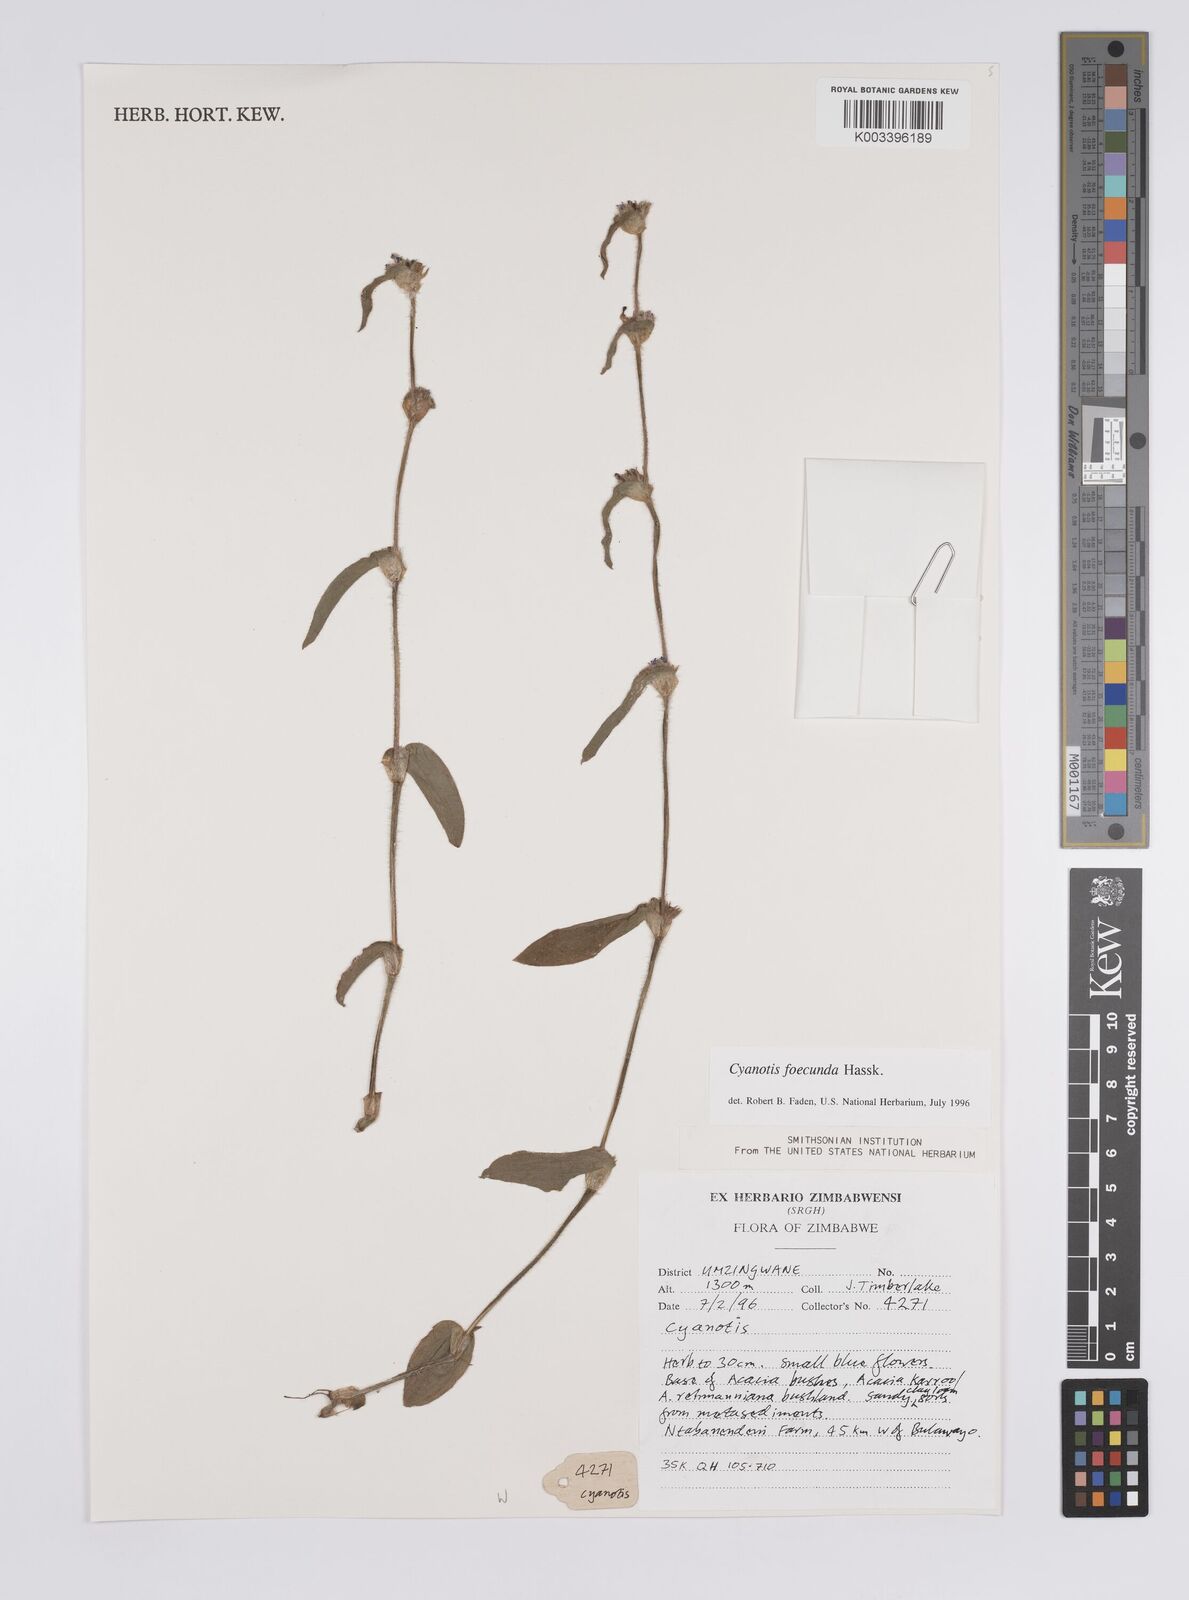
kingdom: Plantae
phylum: Tracheophyta
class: Liliopsida
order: Commelinales
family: Commelinaceae
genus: Cyanotis
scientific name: Cyanotis foecunda
